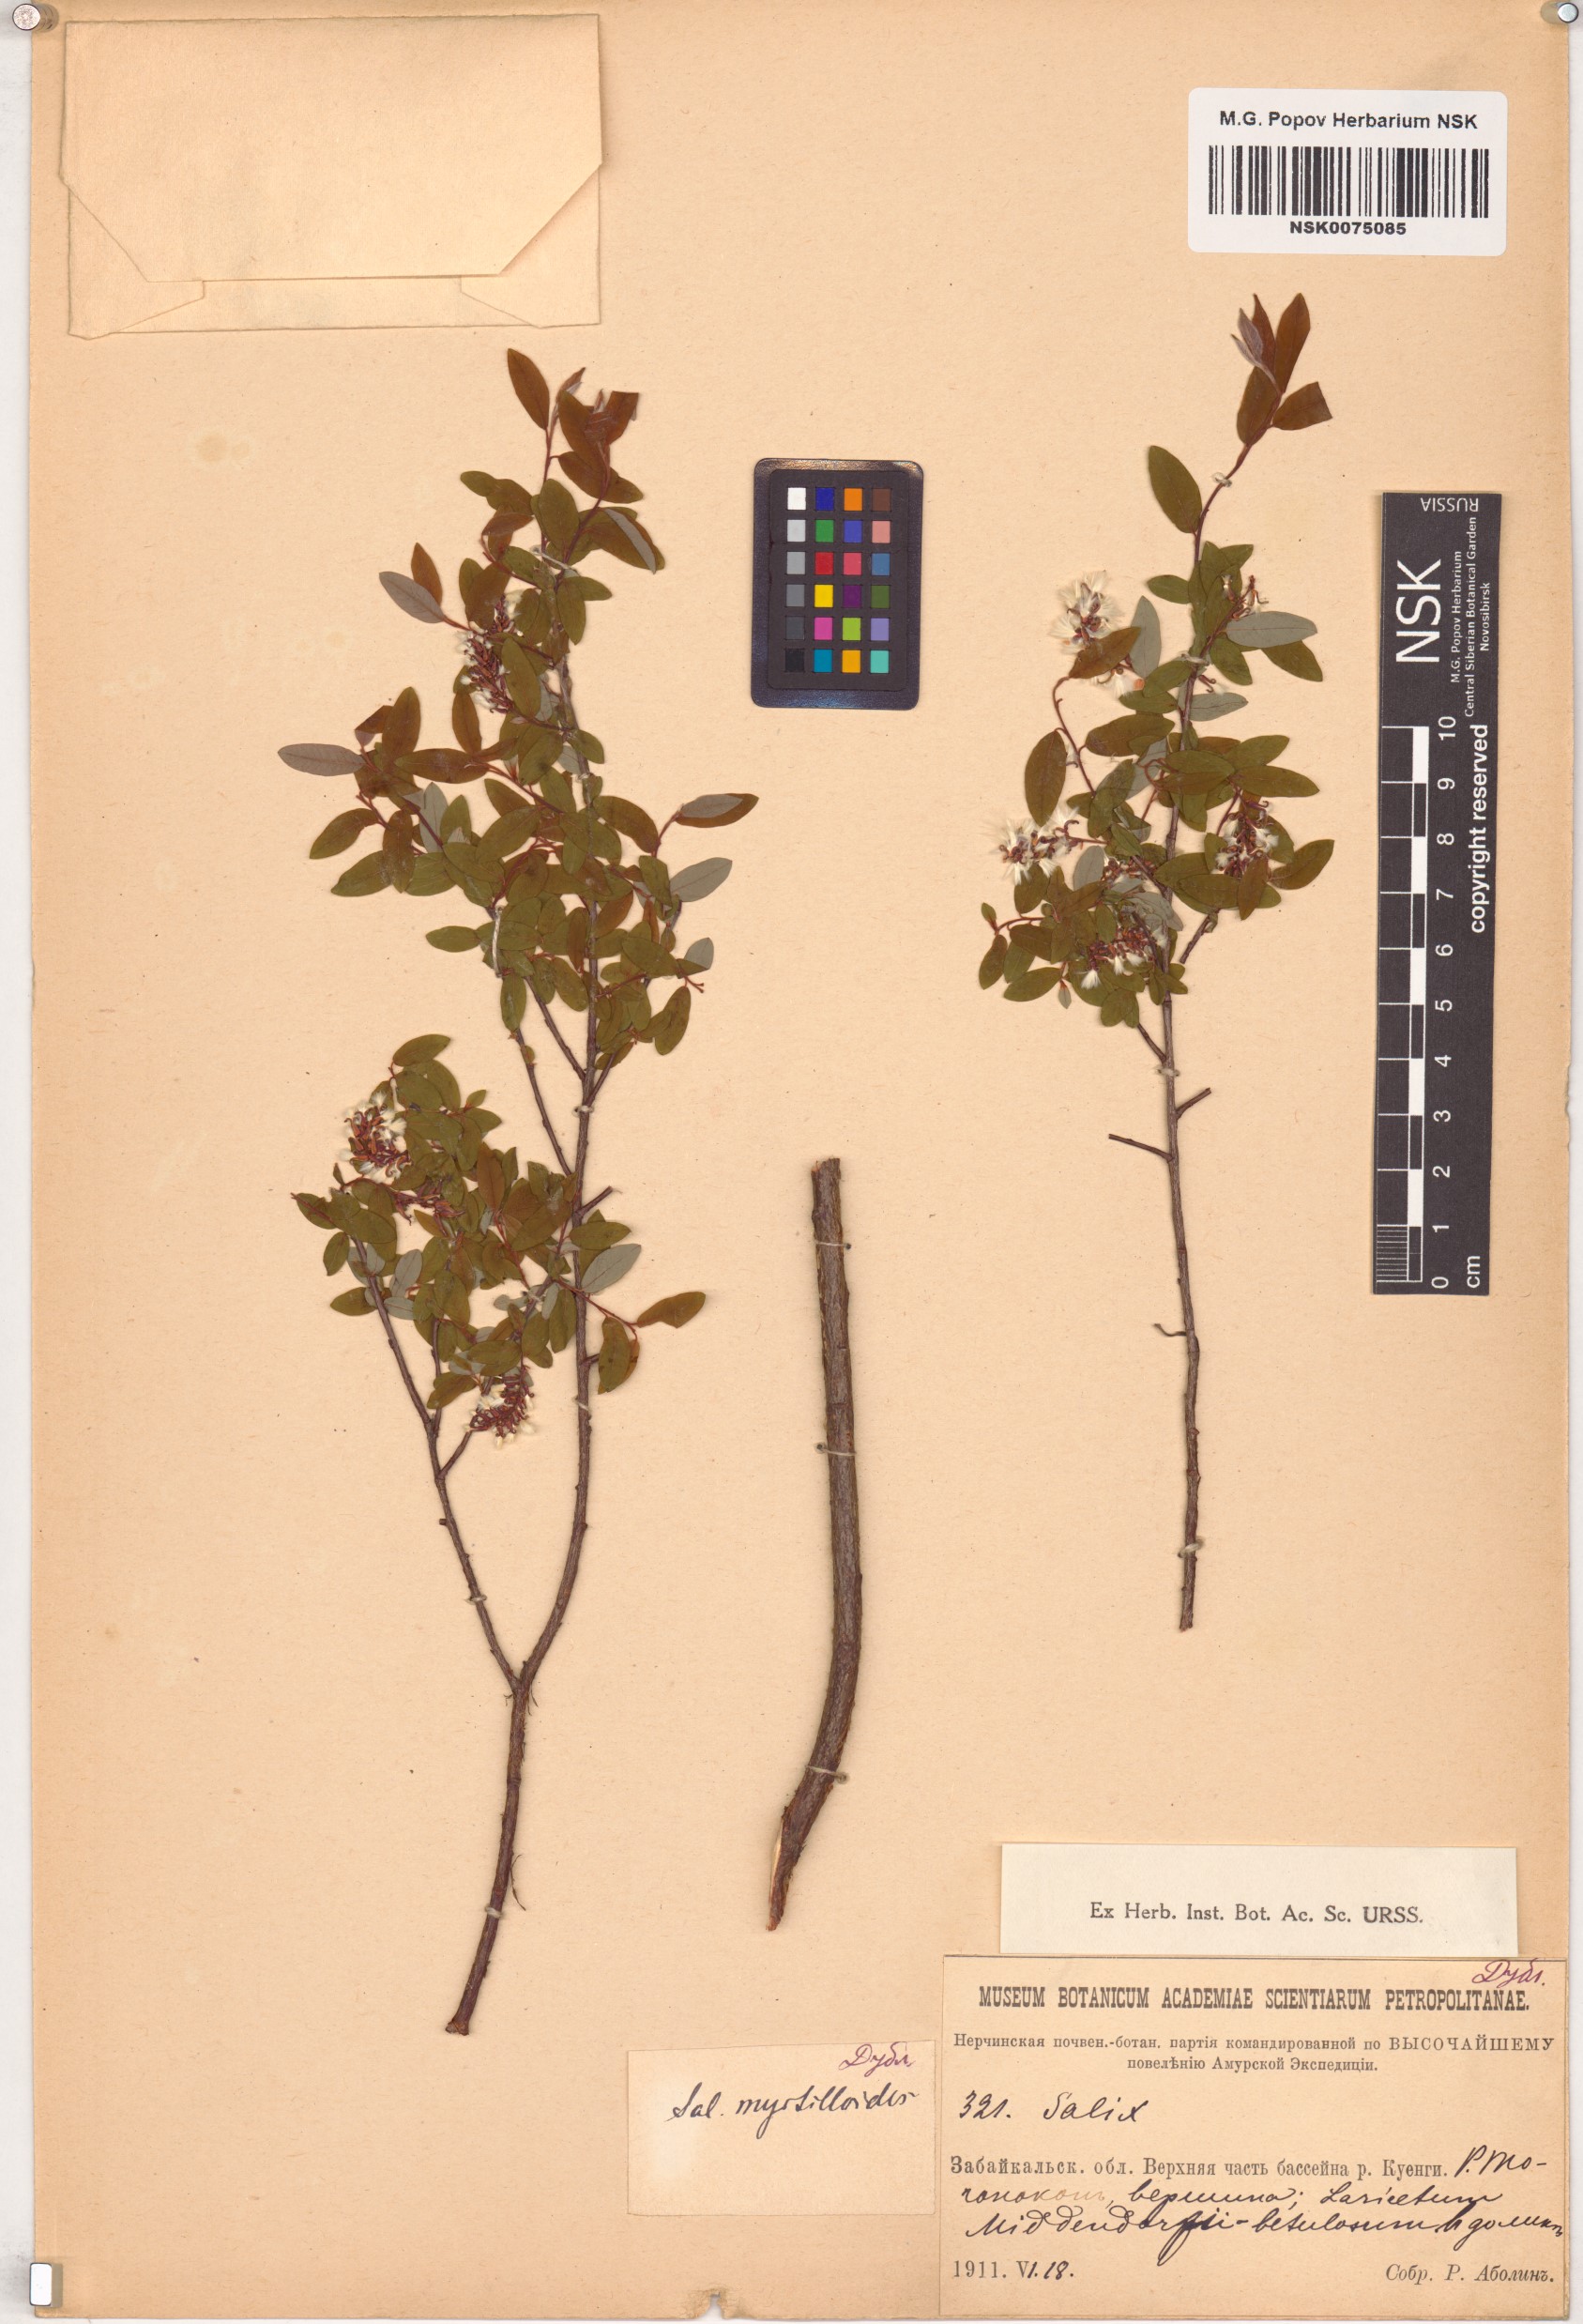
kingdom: Plantae
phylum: Tracheophyta
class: Magnoliopsida
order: Malpighiales
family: Salicaceae
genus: Salix
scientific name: Salix myrtilloides
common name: Myrtle-leaved willow
